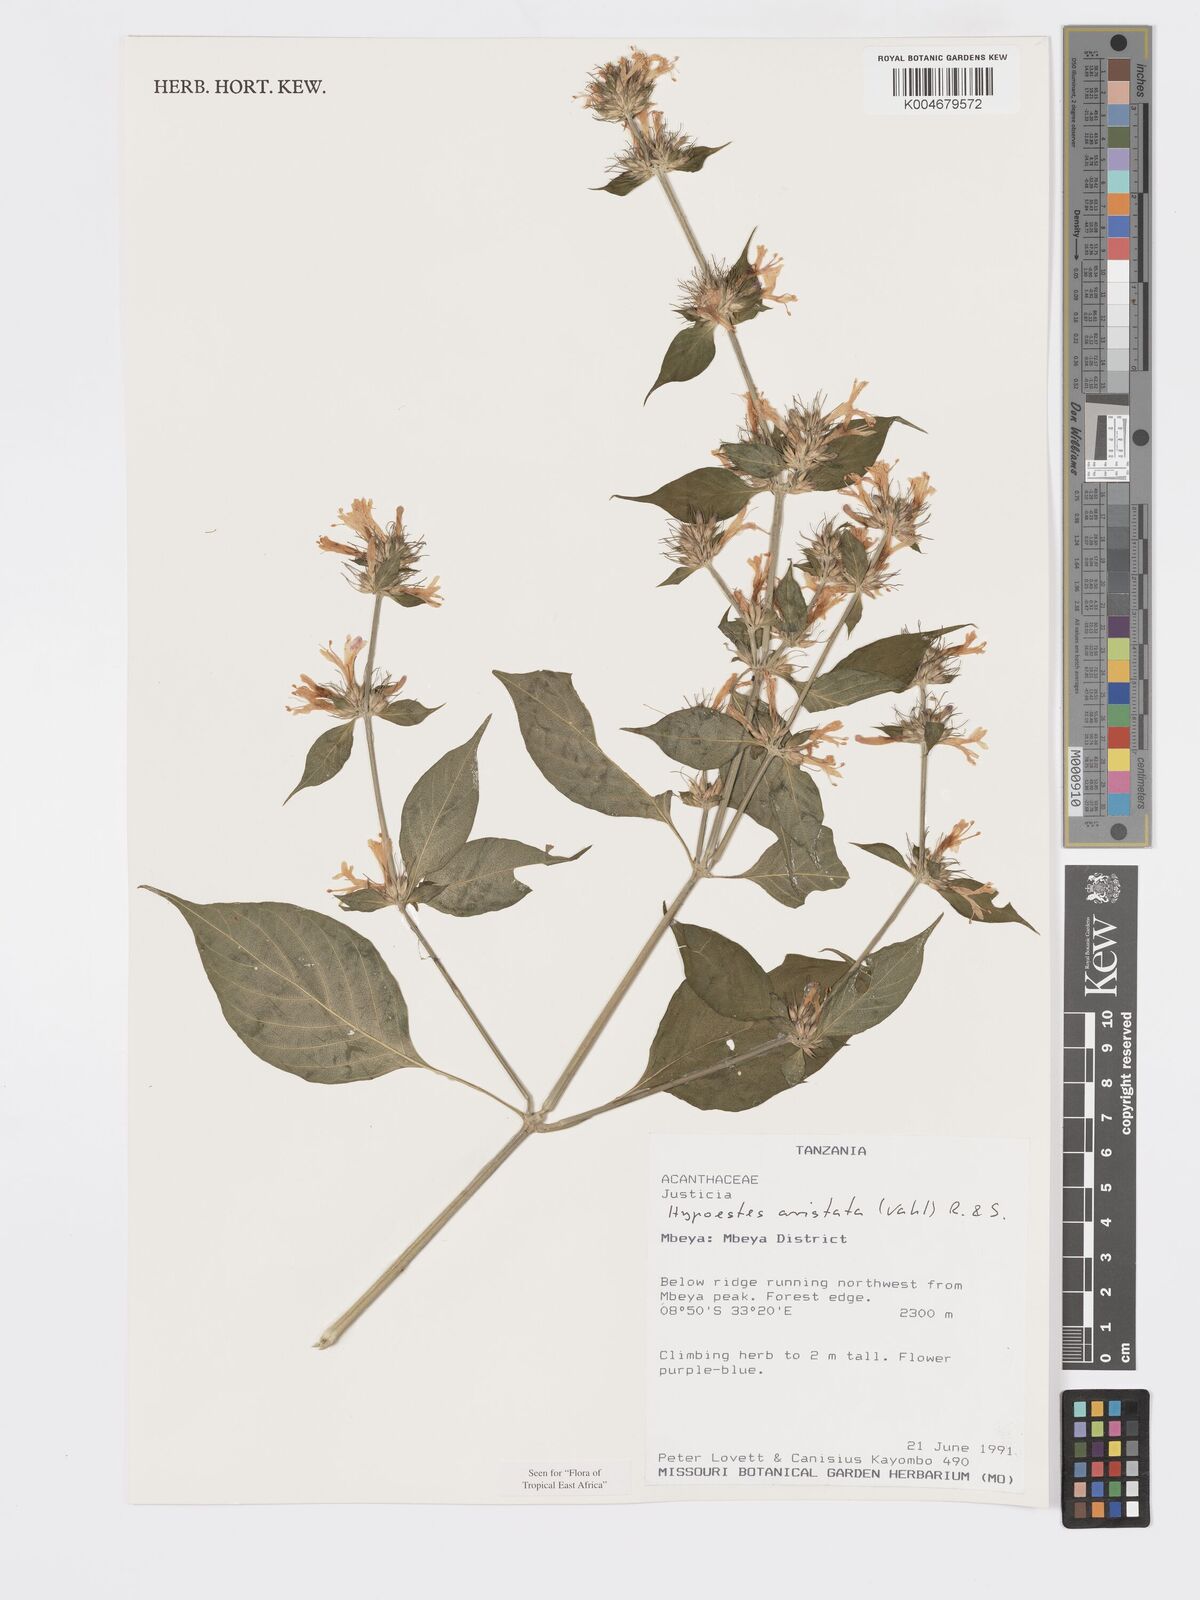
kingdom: Plantae
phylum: Tracheophyta
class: Magnoliopsida
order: Lamiales
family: Acanthaceae
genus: Hypoestes
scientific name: Hypoestes aristata
